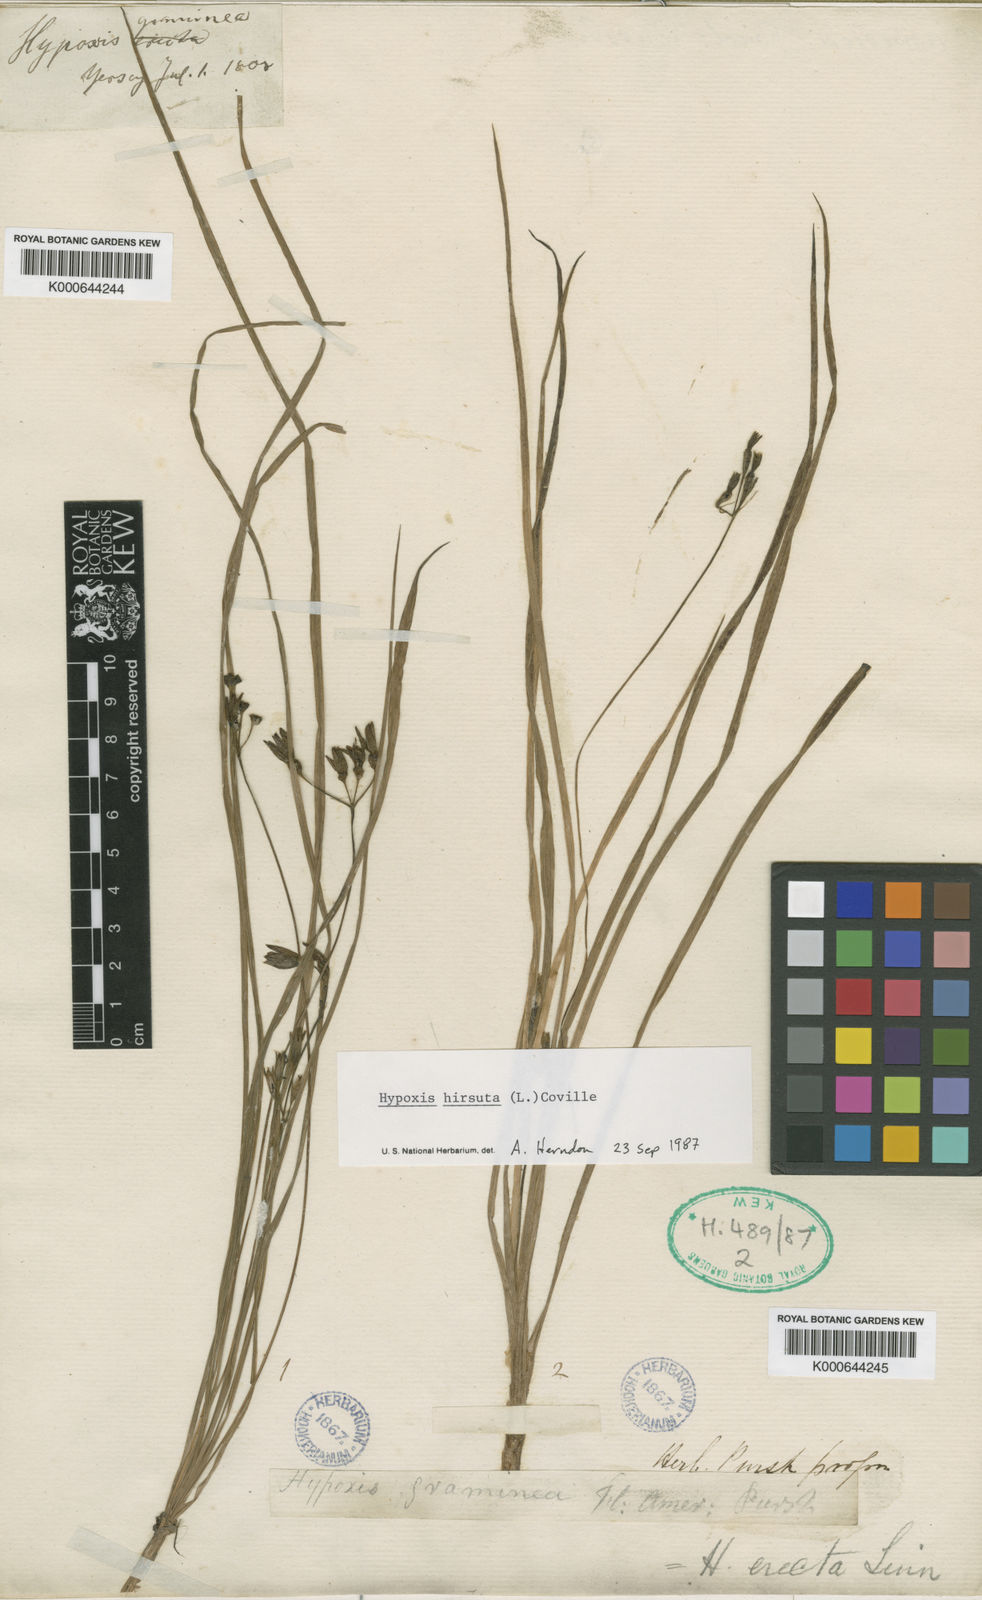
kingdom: Plantae
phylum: Tracheophyta
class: Liliopsida
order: Asparagales
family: Hypoxidaceae
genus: Hypoxis
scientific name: Hypoxis graminea
